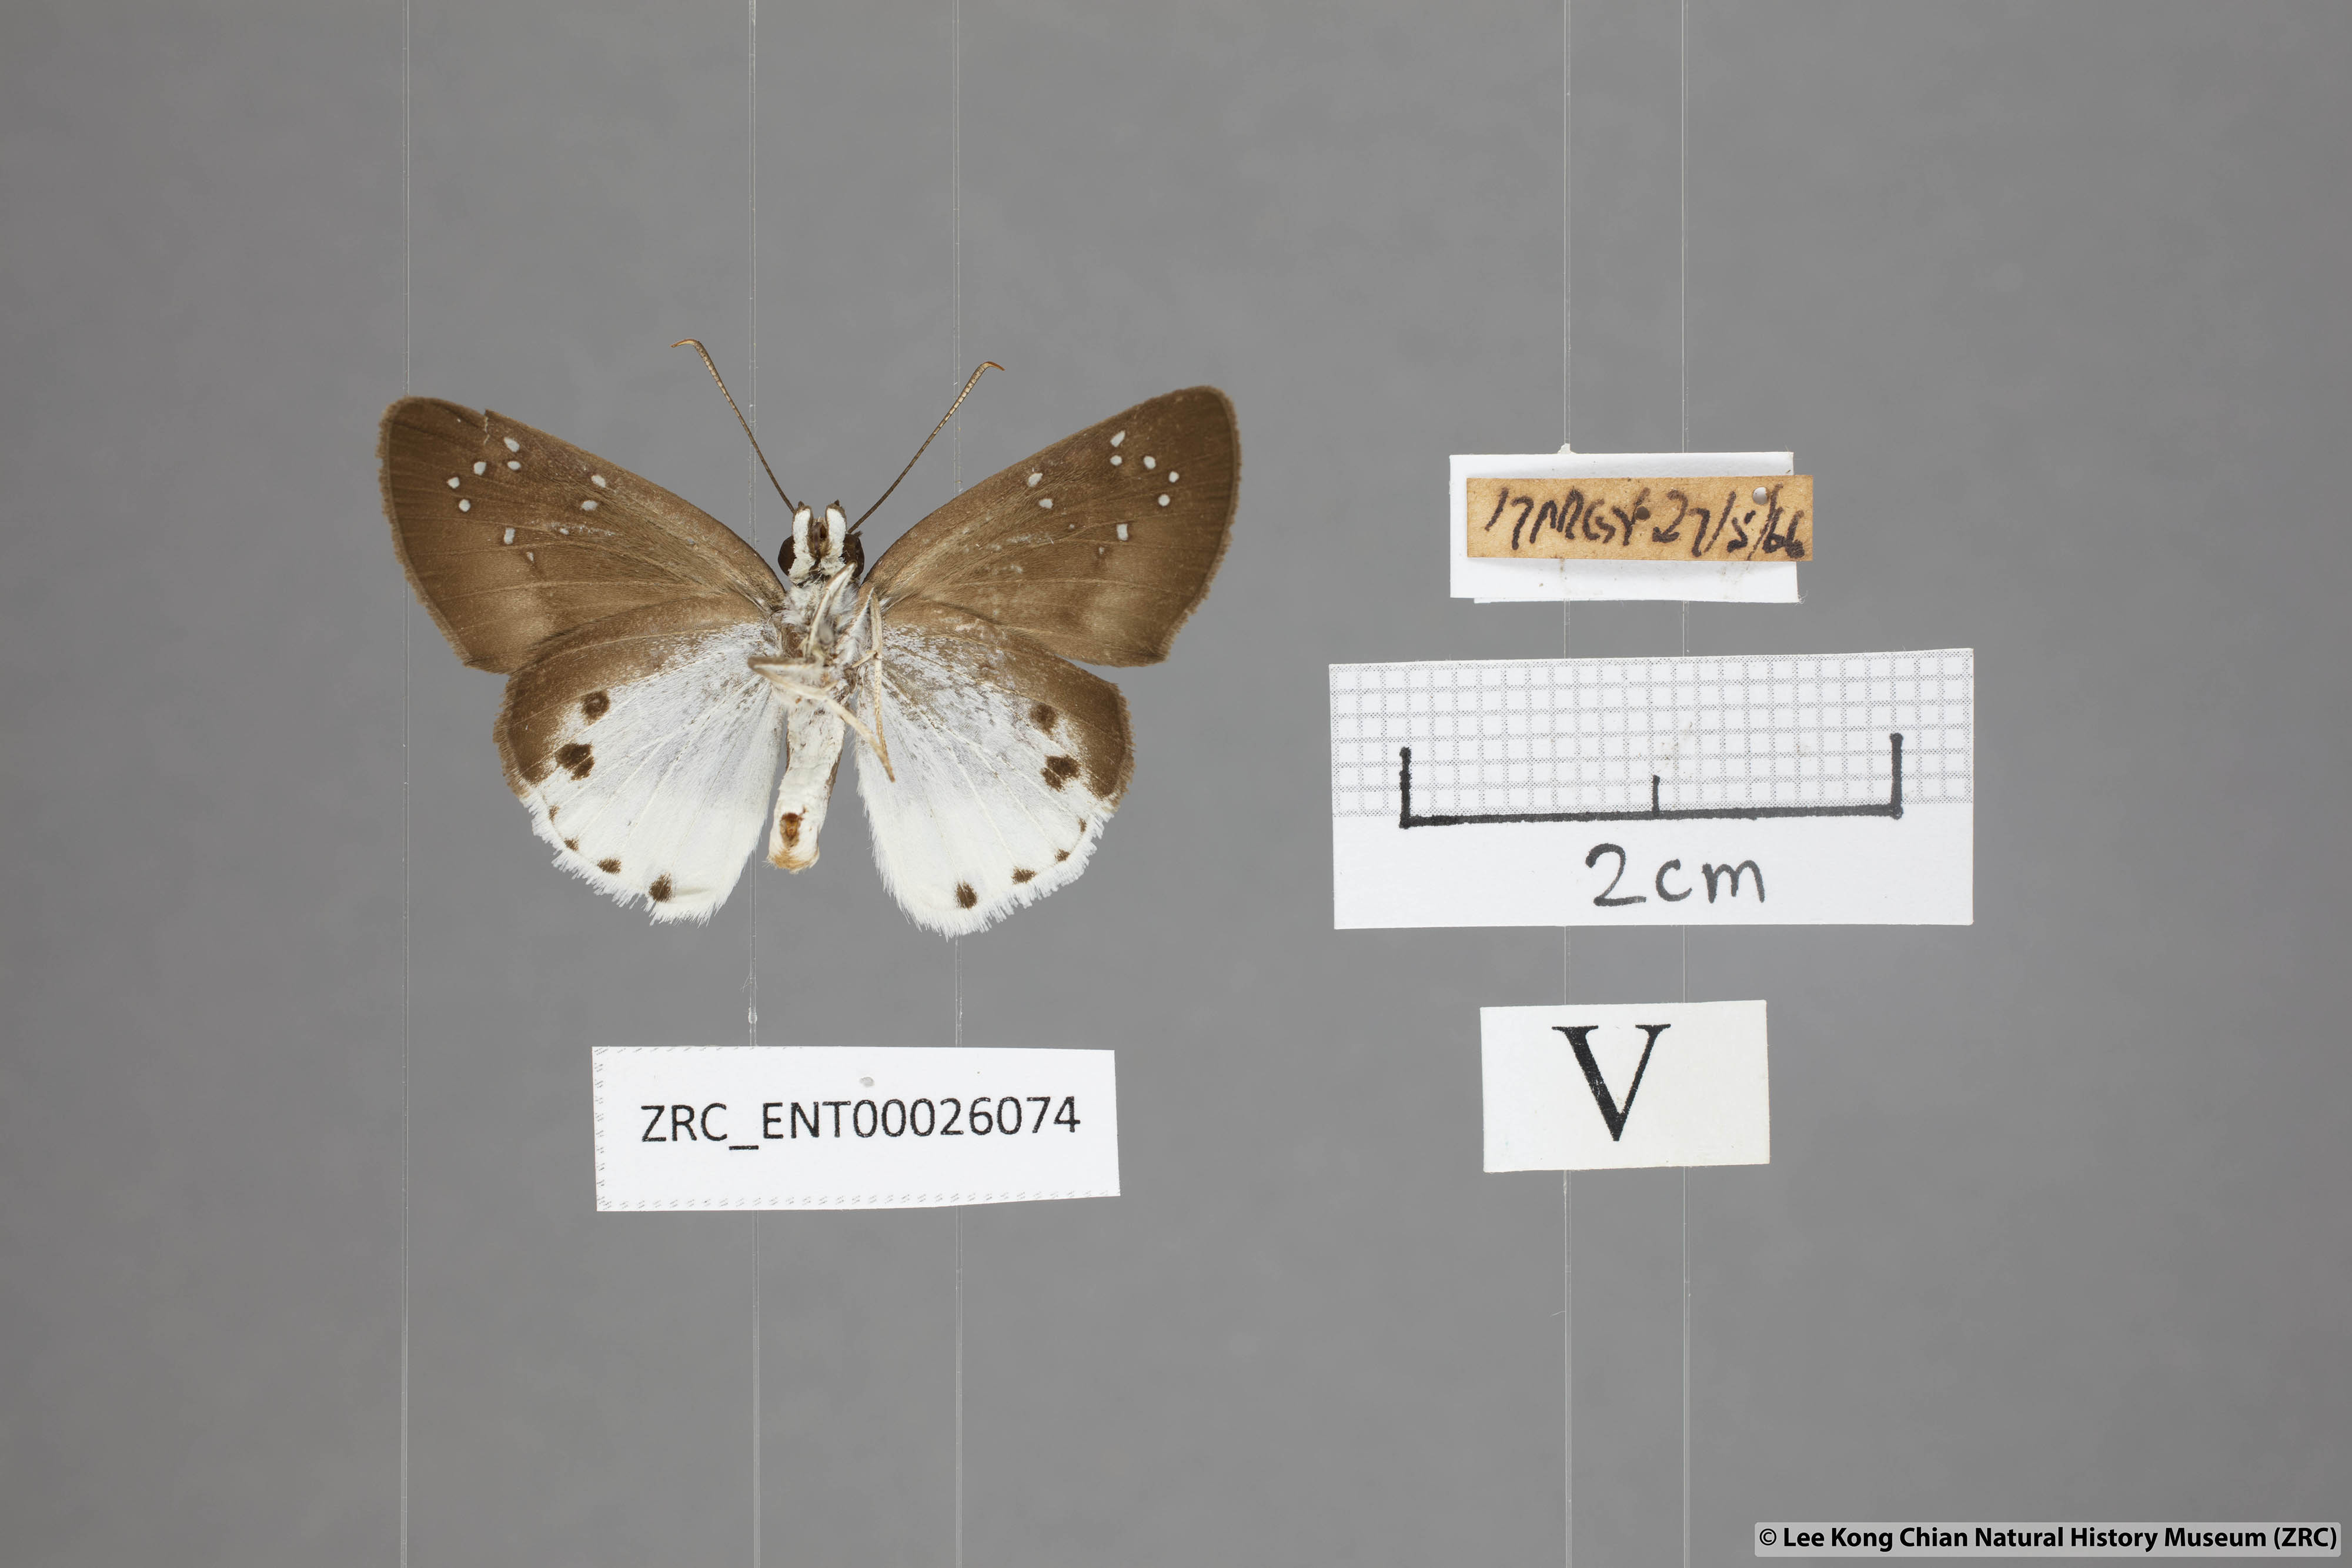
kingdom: Animalia
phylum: Arthropoda
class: Insecta
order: Lepidoptera
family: Hesperiidae
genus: Tagiades
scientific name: Tagiades waterstradti
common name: Waterstradt snow flat
